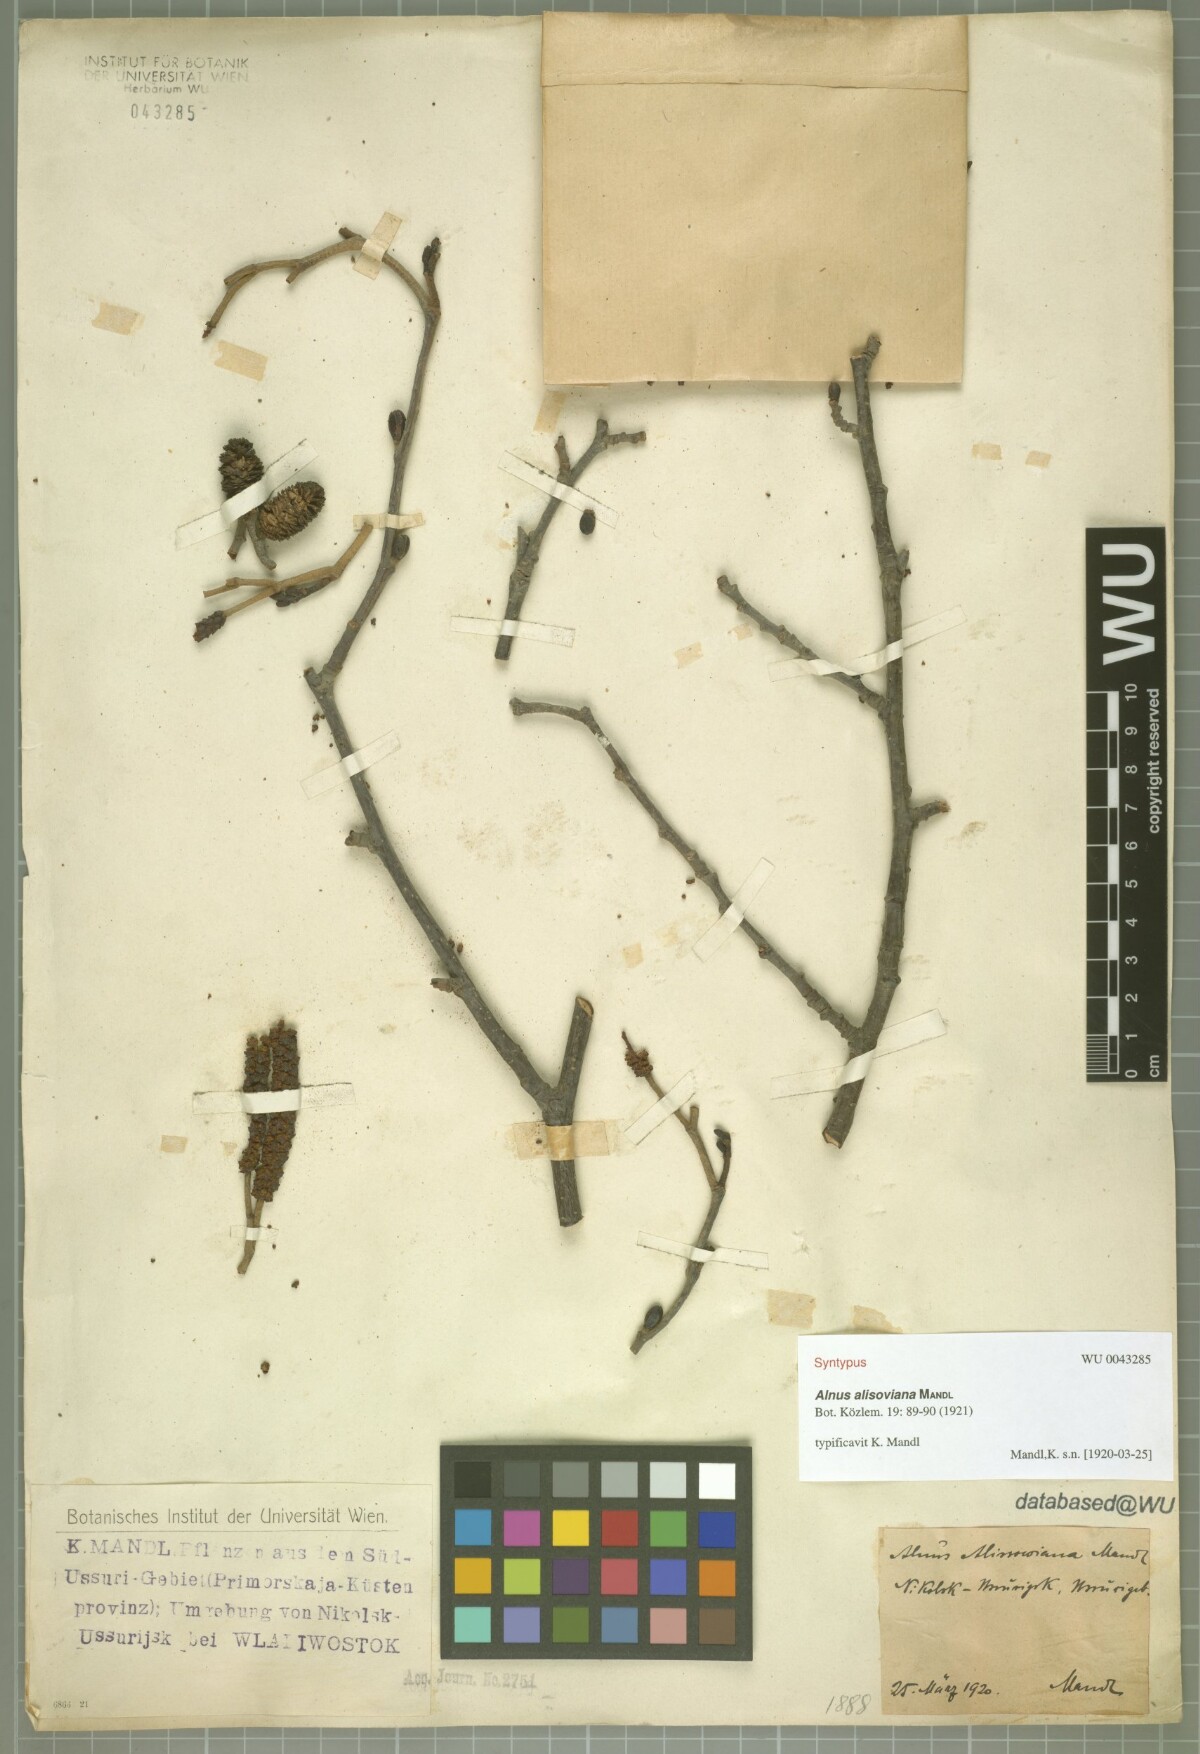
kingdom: Plantae
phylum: Tracheophyta
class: Magnoliopsida
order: Fagales
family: Betulaceae
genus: Alnus
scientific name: Alnus incana
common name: Grey alder
